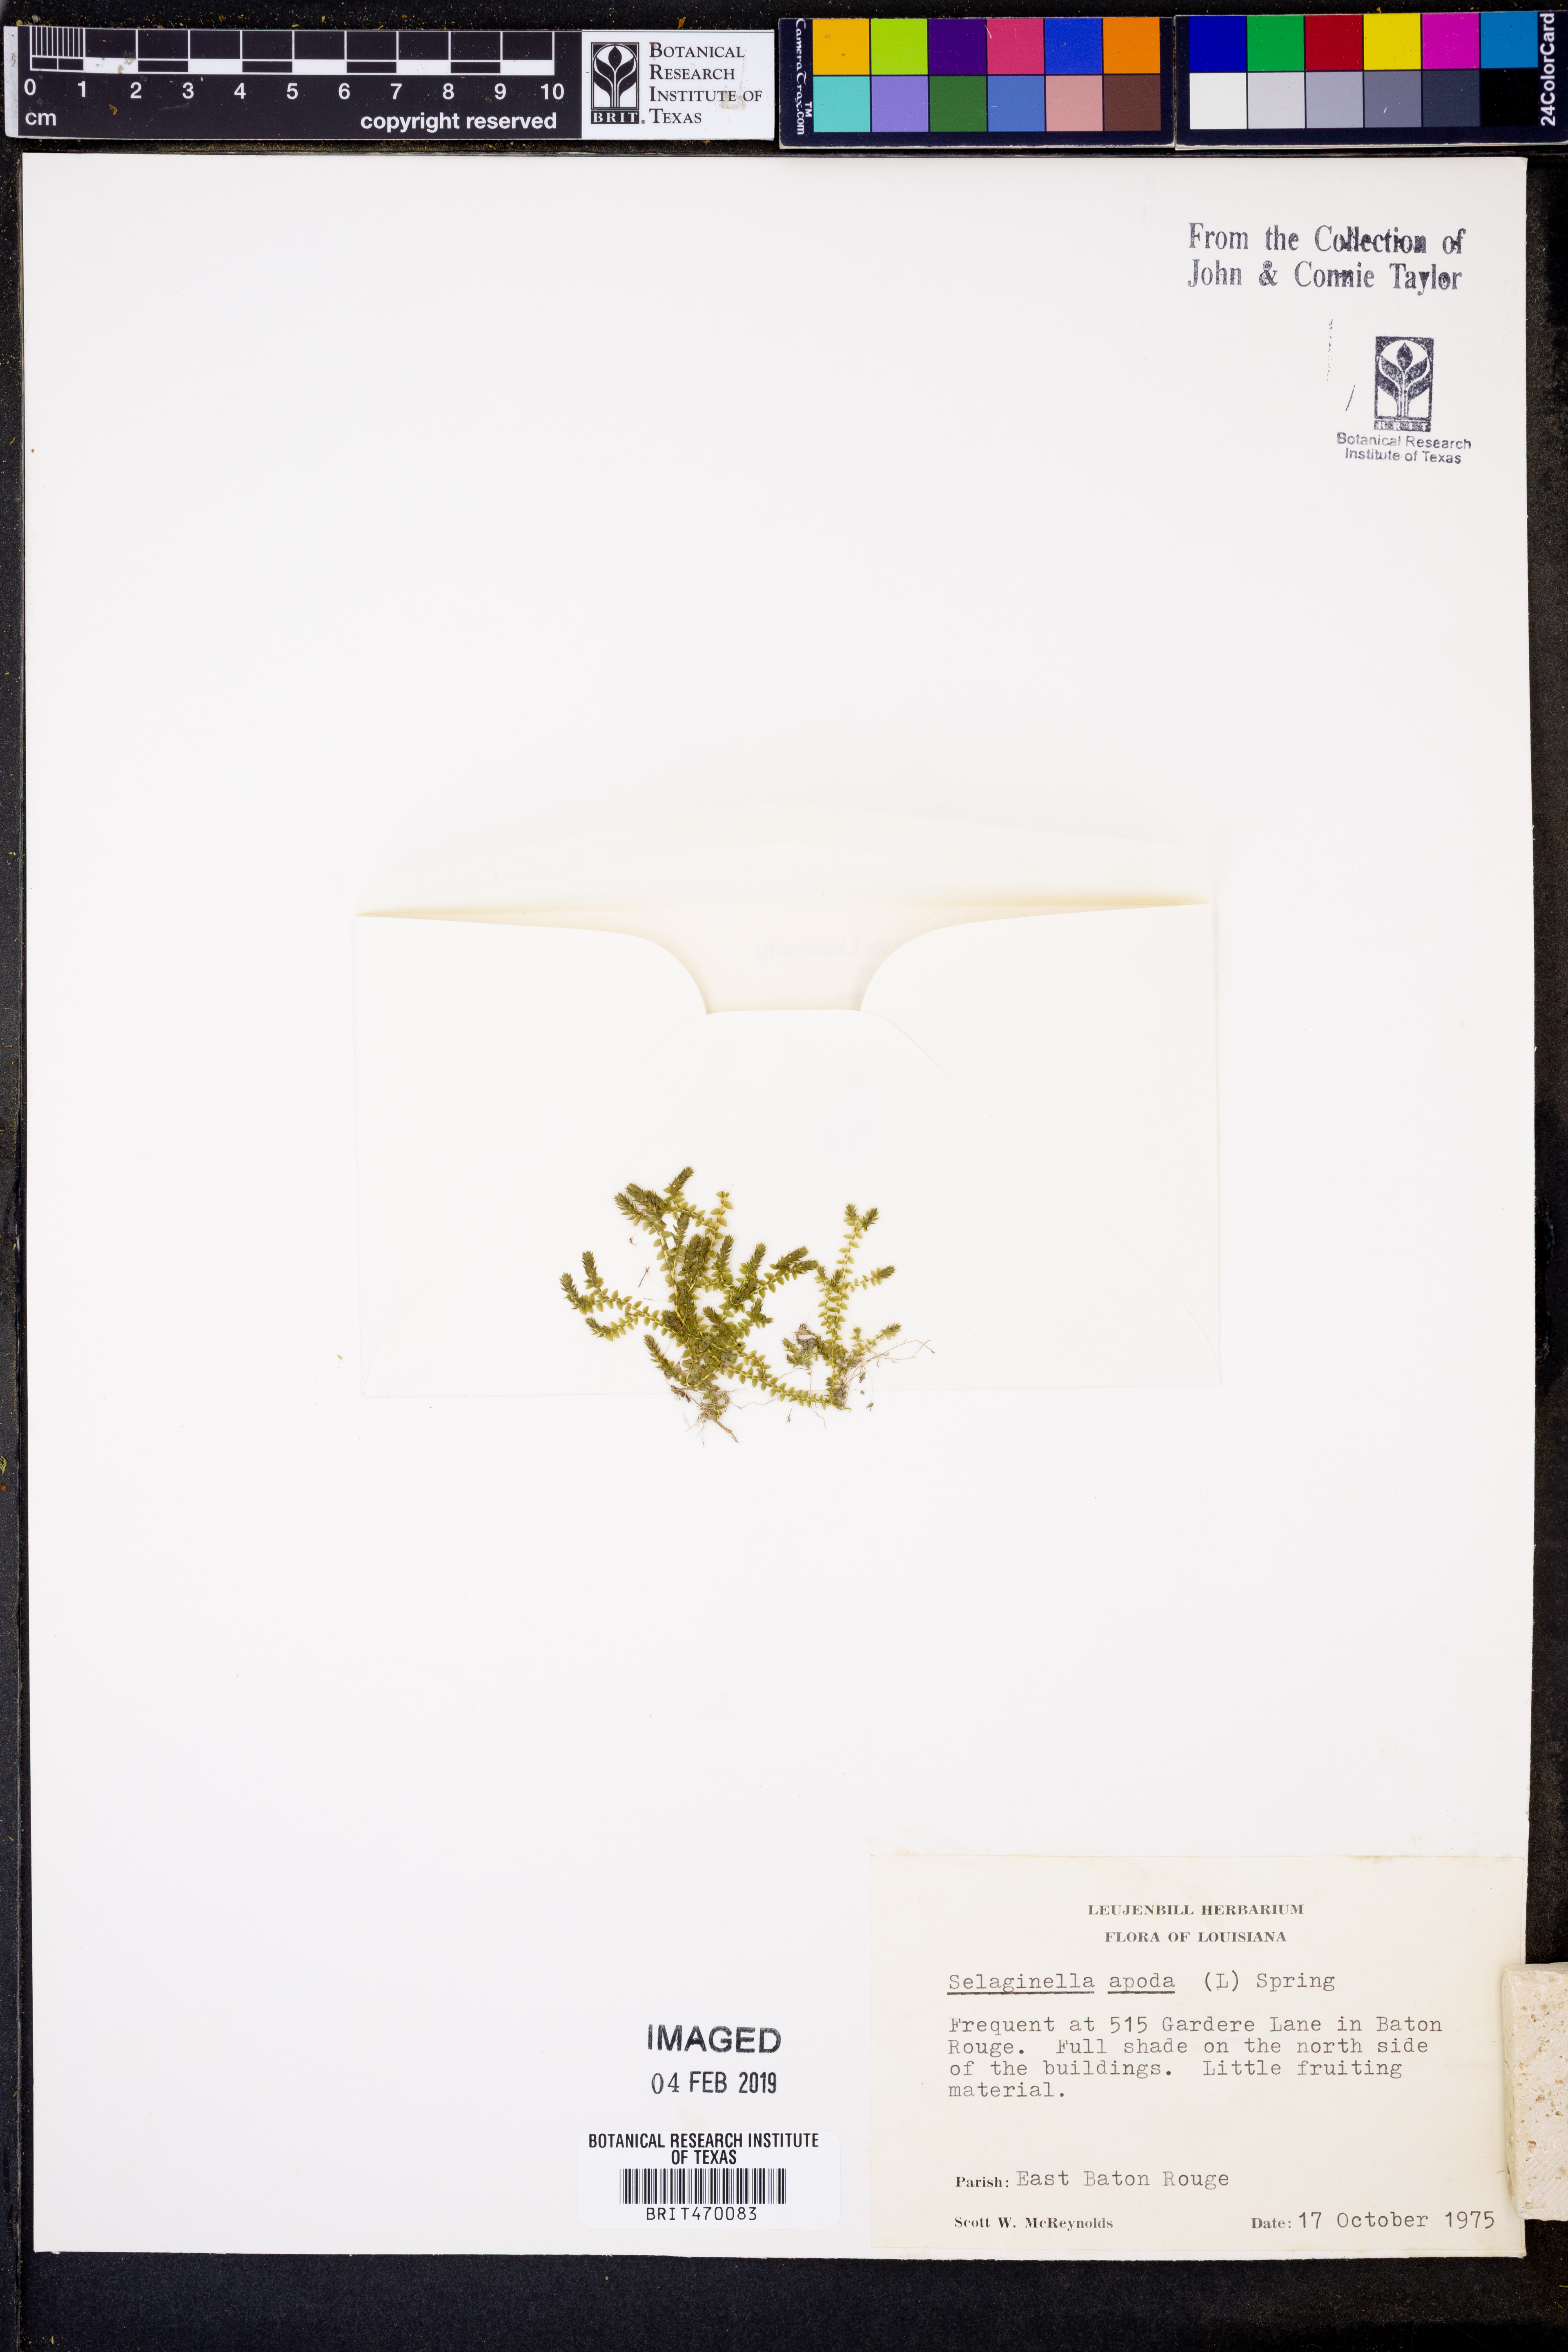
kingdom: Plantae
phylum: Tracheophyta
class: Lycopodiopsida
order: Selaginellales
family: Selaginellaceae
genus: Selaginella
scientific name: Selaginella apoda
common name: Creeping spikemoss
